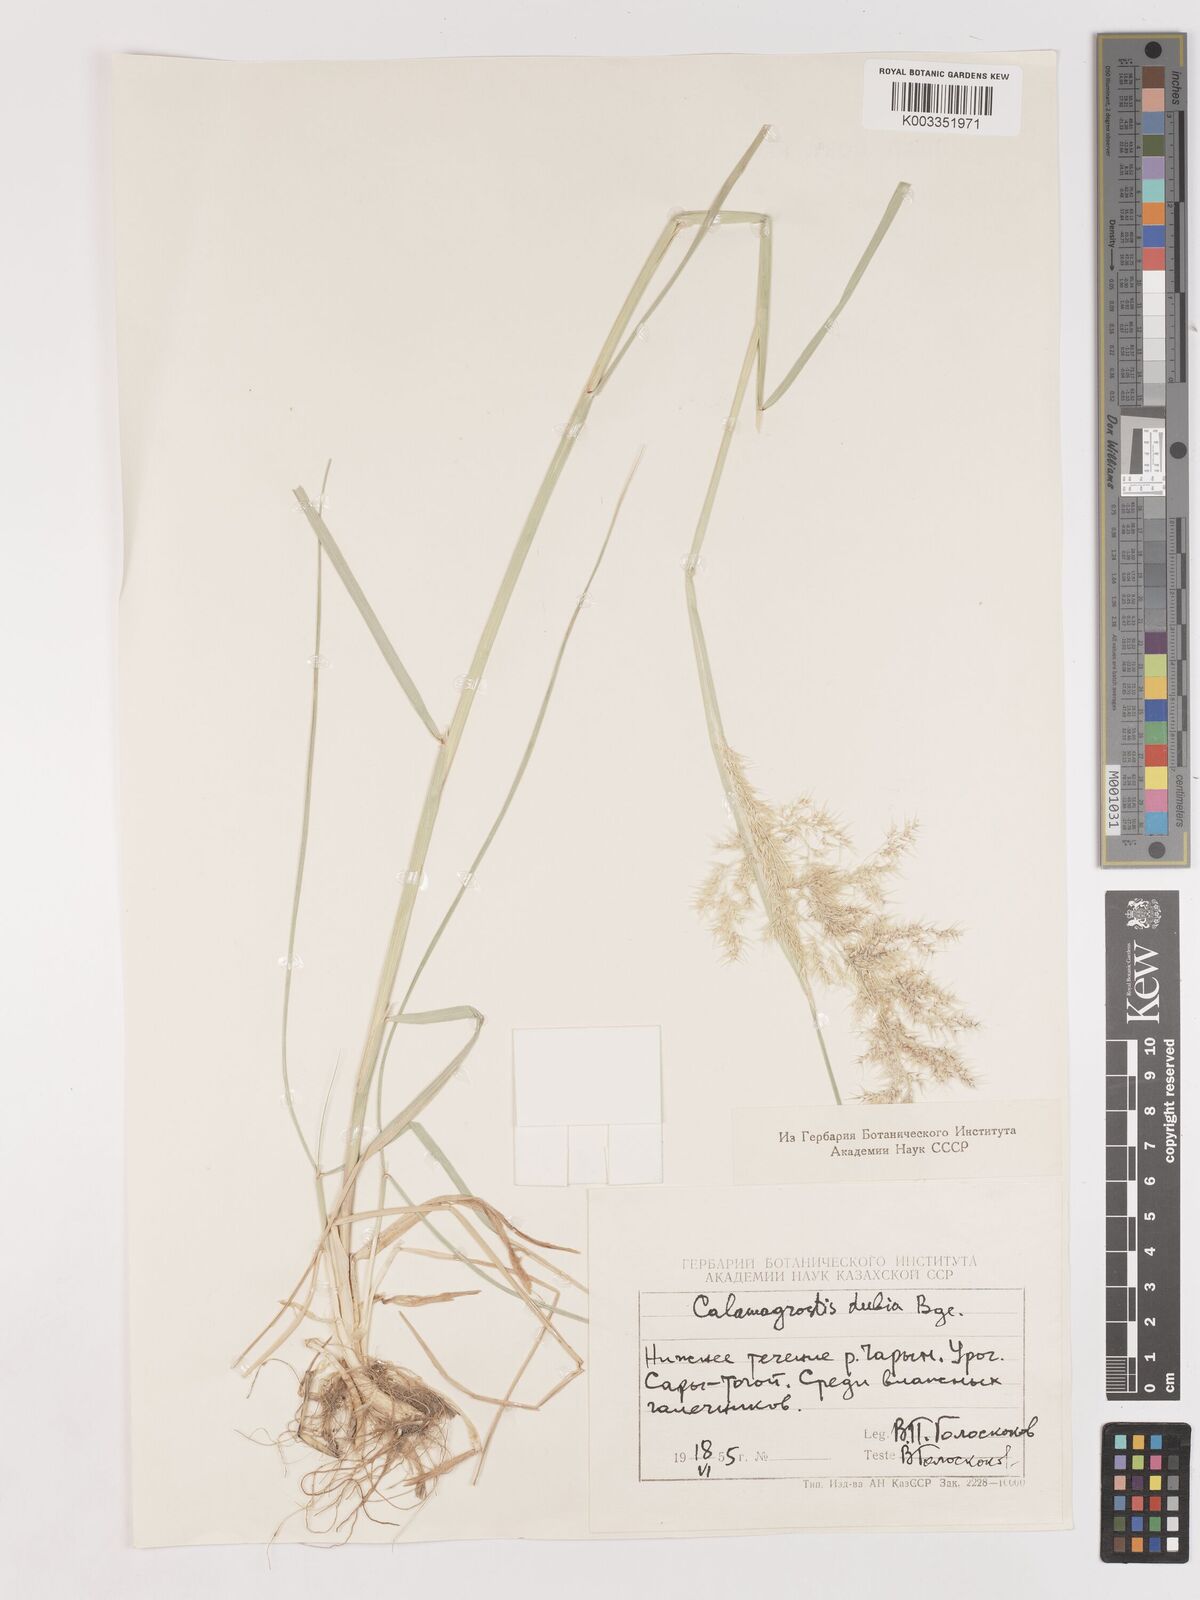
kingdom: Plantae
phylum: Tracheophyta
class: Liliopsida
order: Poales
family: Poaceae
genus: Calamagrostis
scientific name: Calamagrostis pseudophragmites
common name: Coastal small-reed
